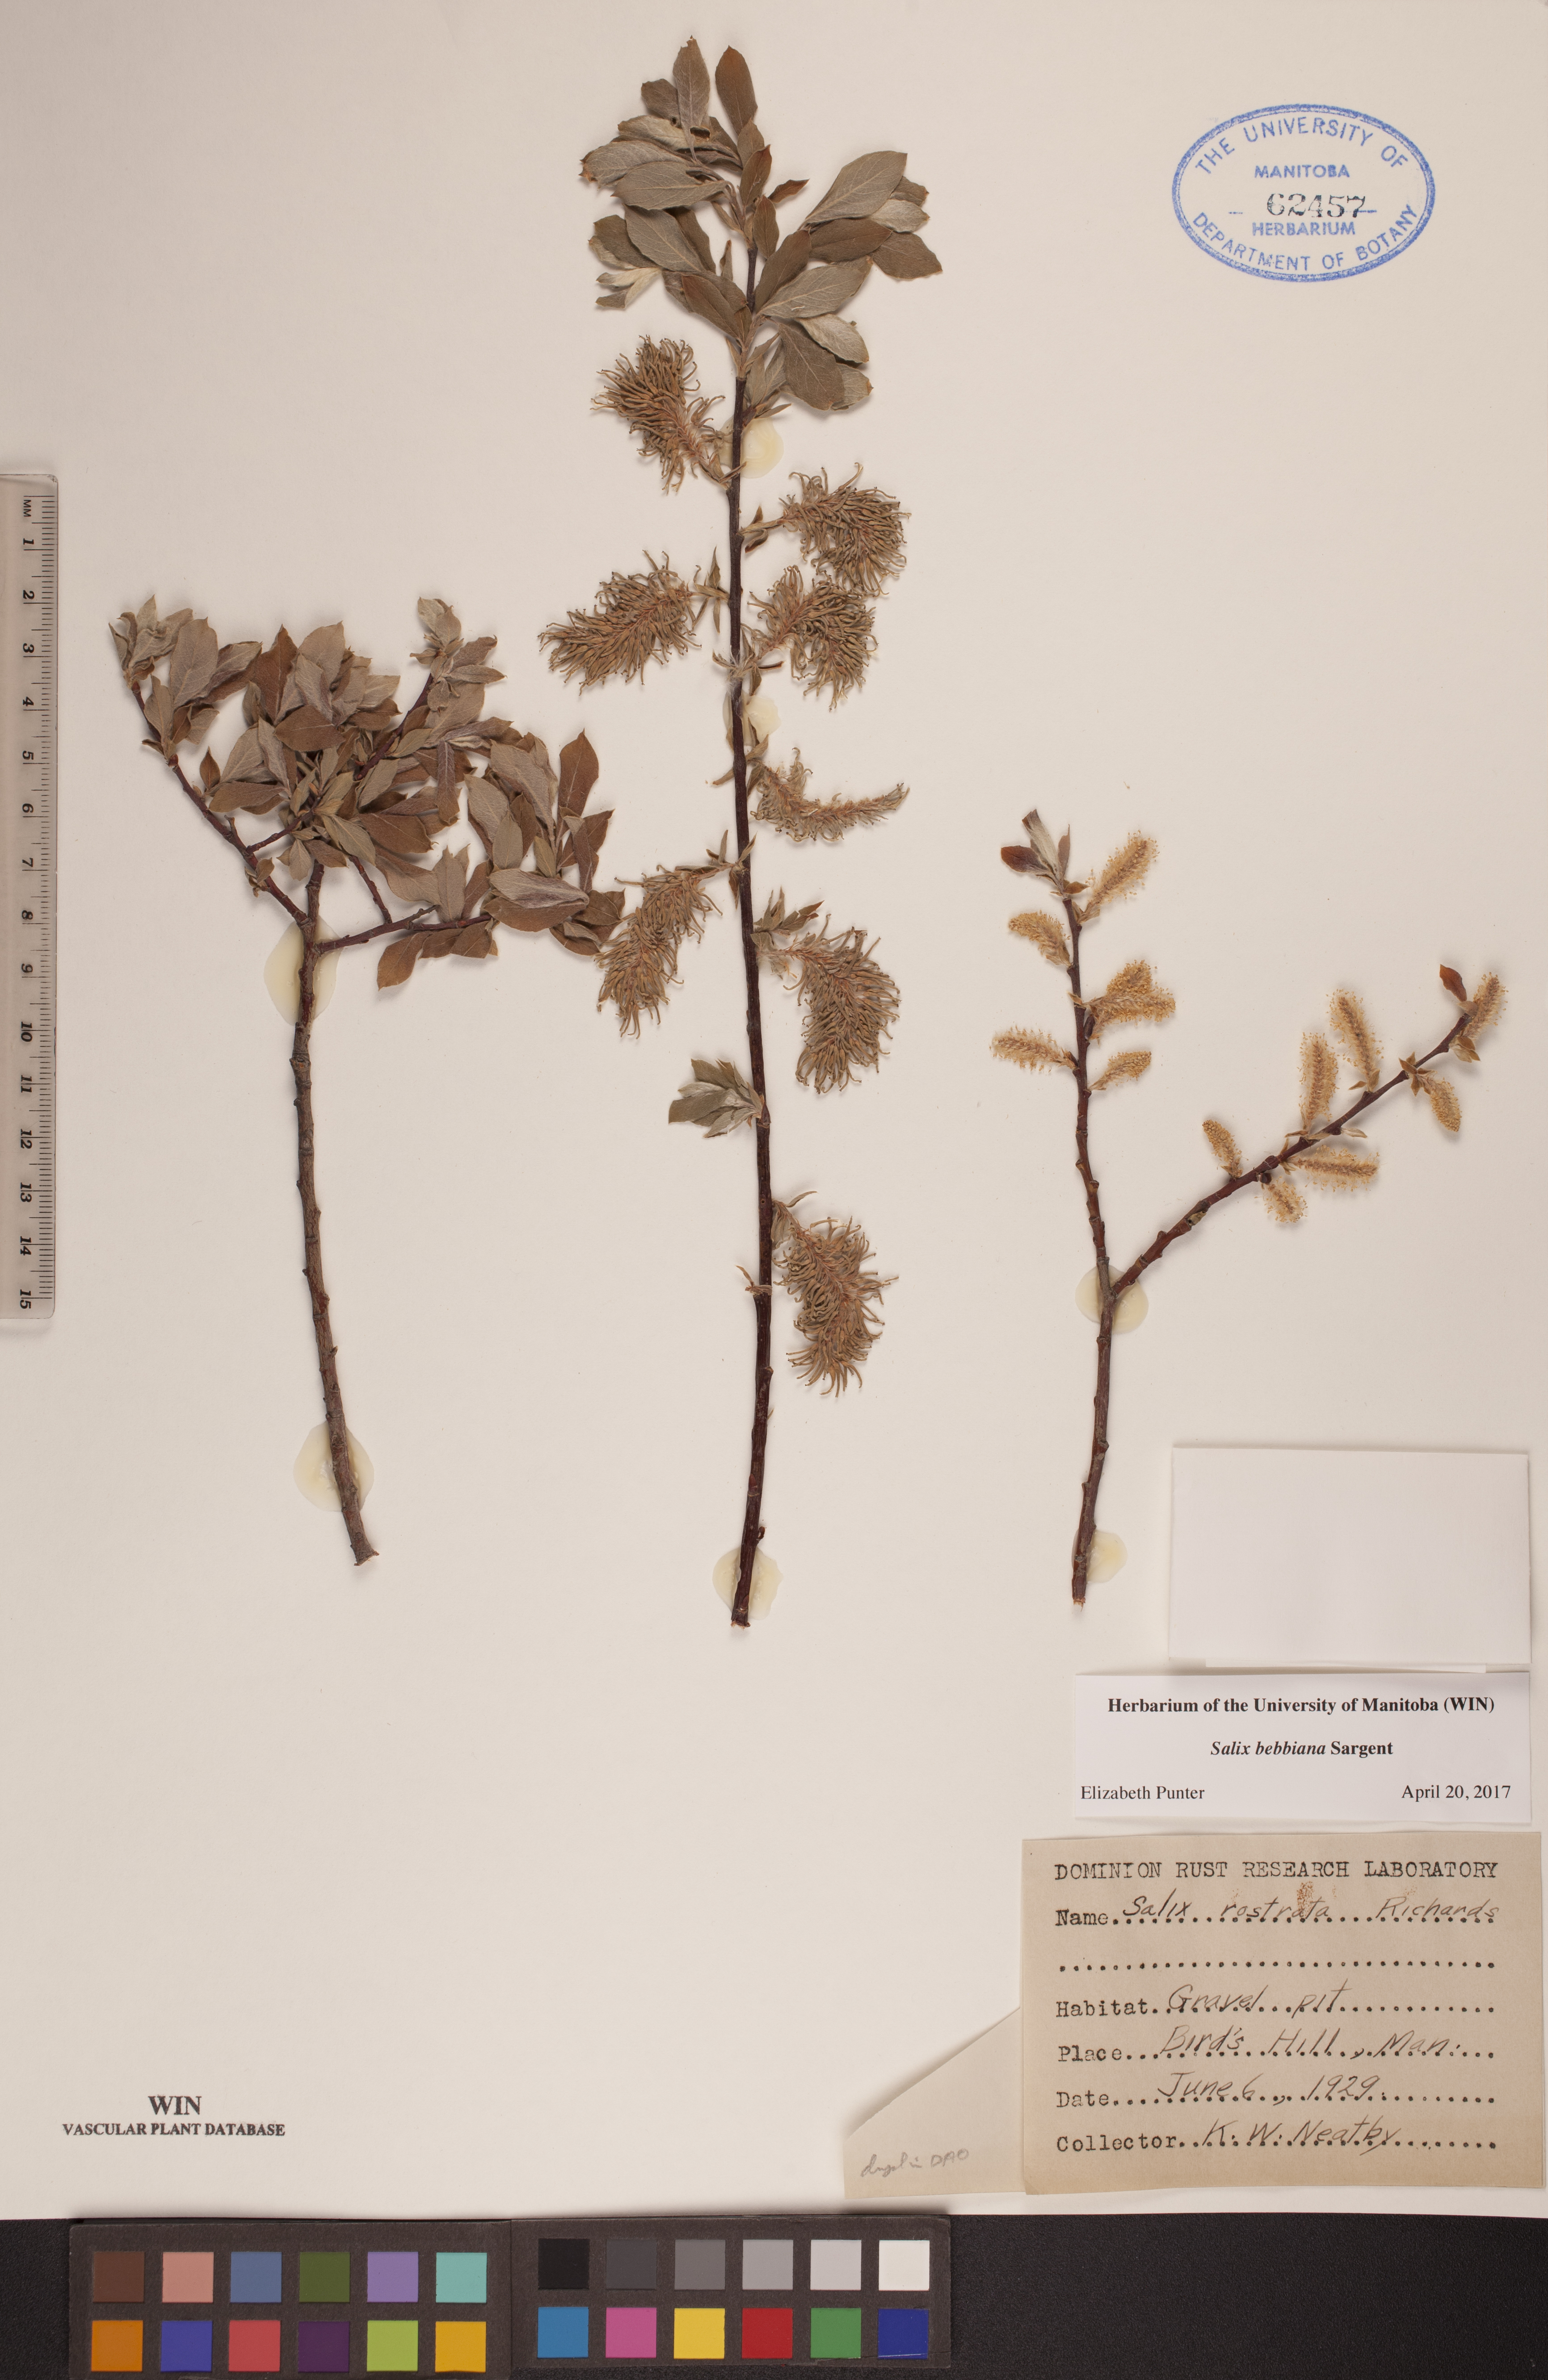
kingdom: Plantae
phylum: Tracheophyta
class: Magnoliopsida
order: Malpighiales
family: Salicaceae
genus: Salix
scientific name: Salix bebbiana
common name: Bebb's willow
